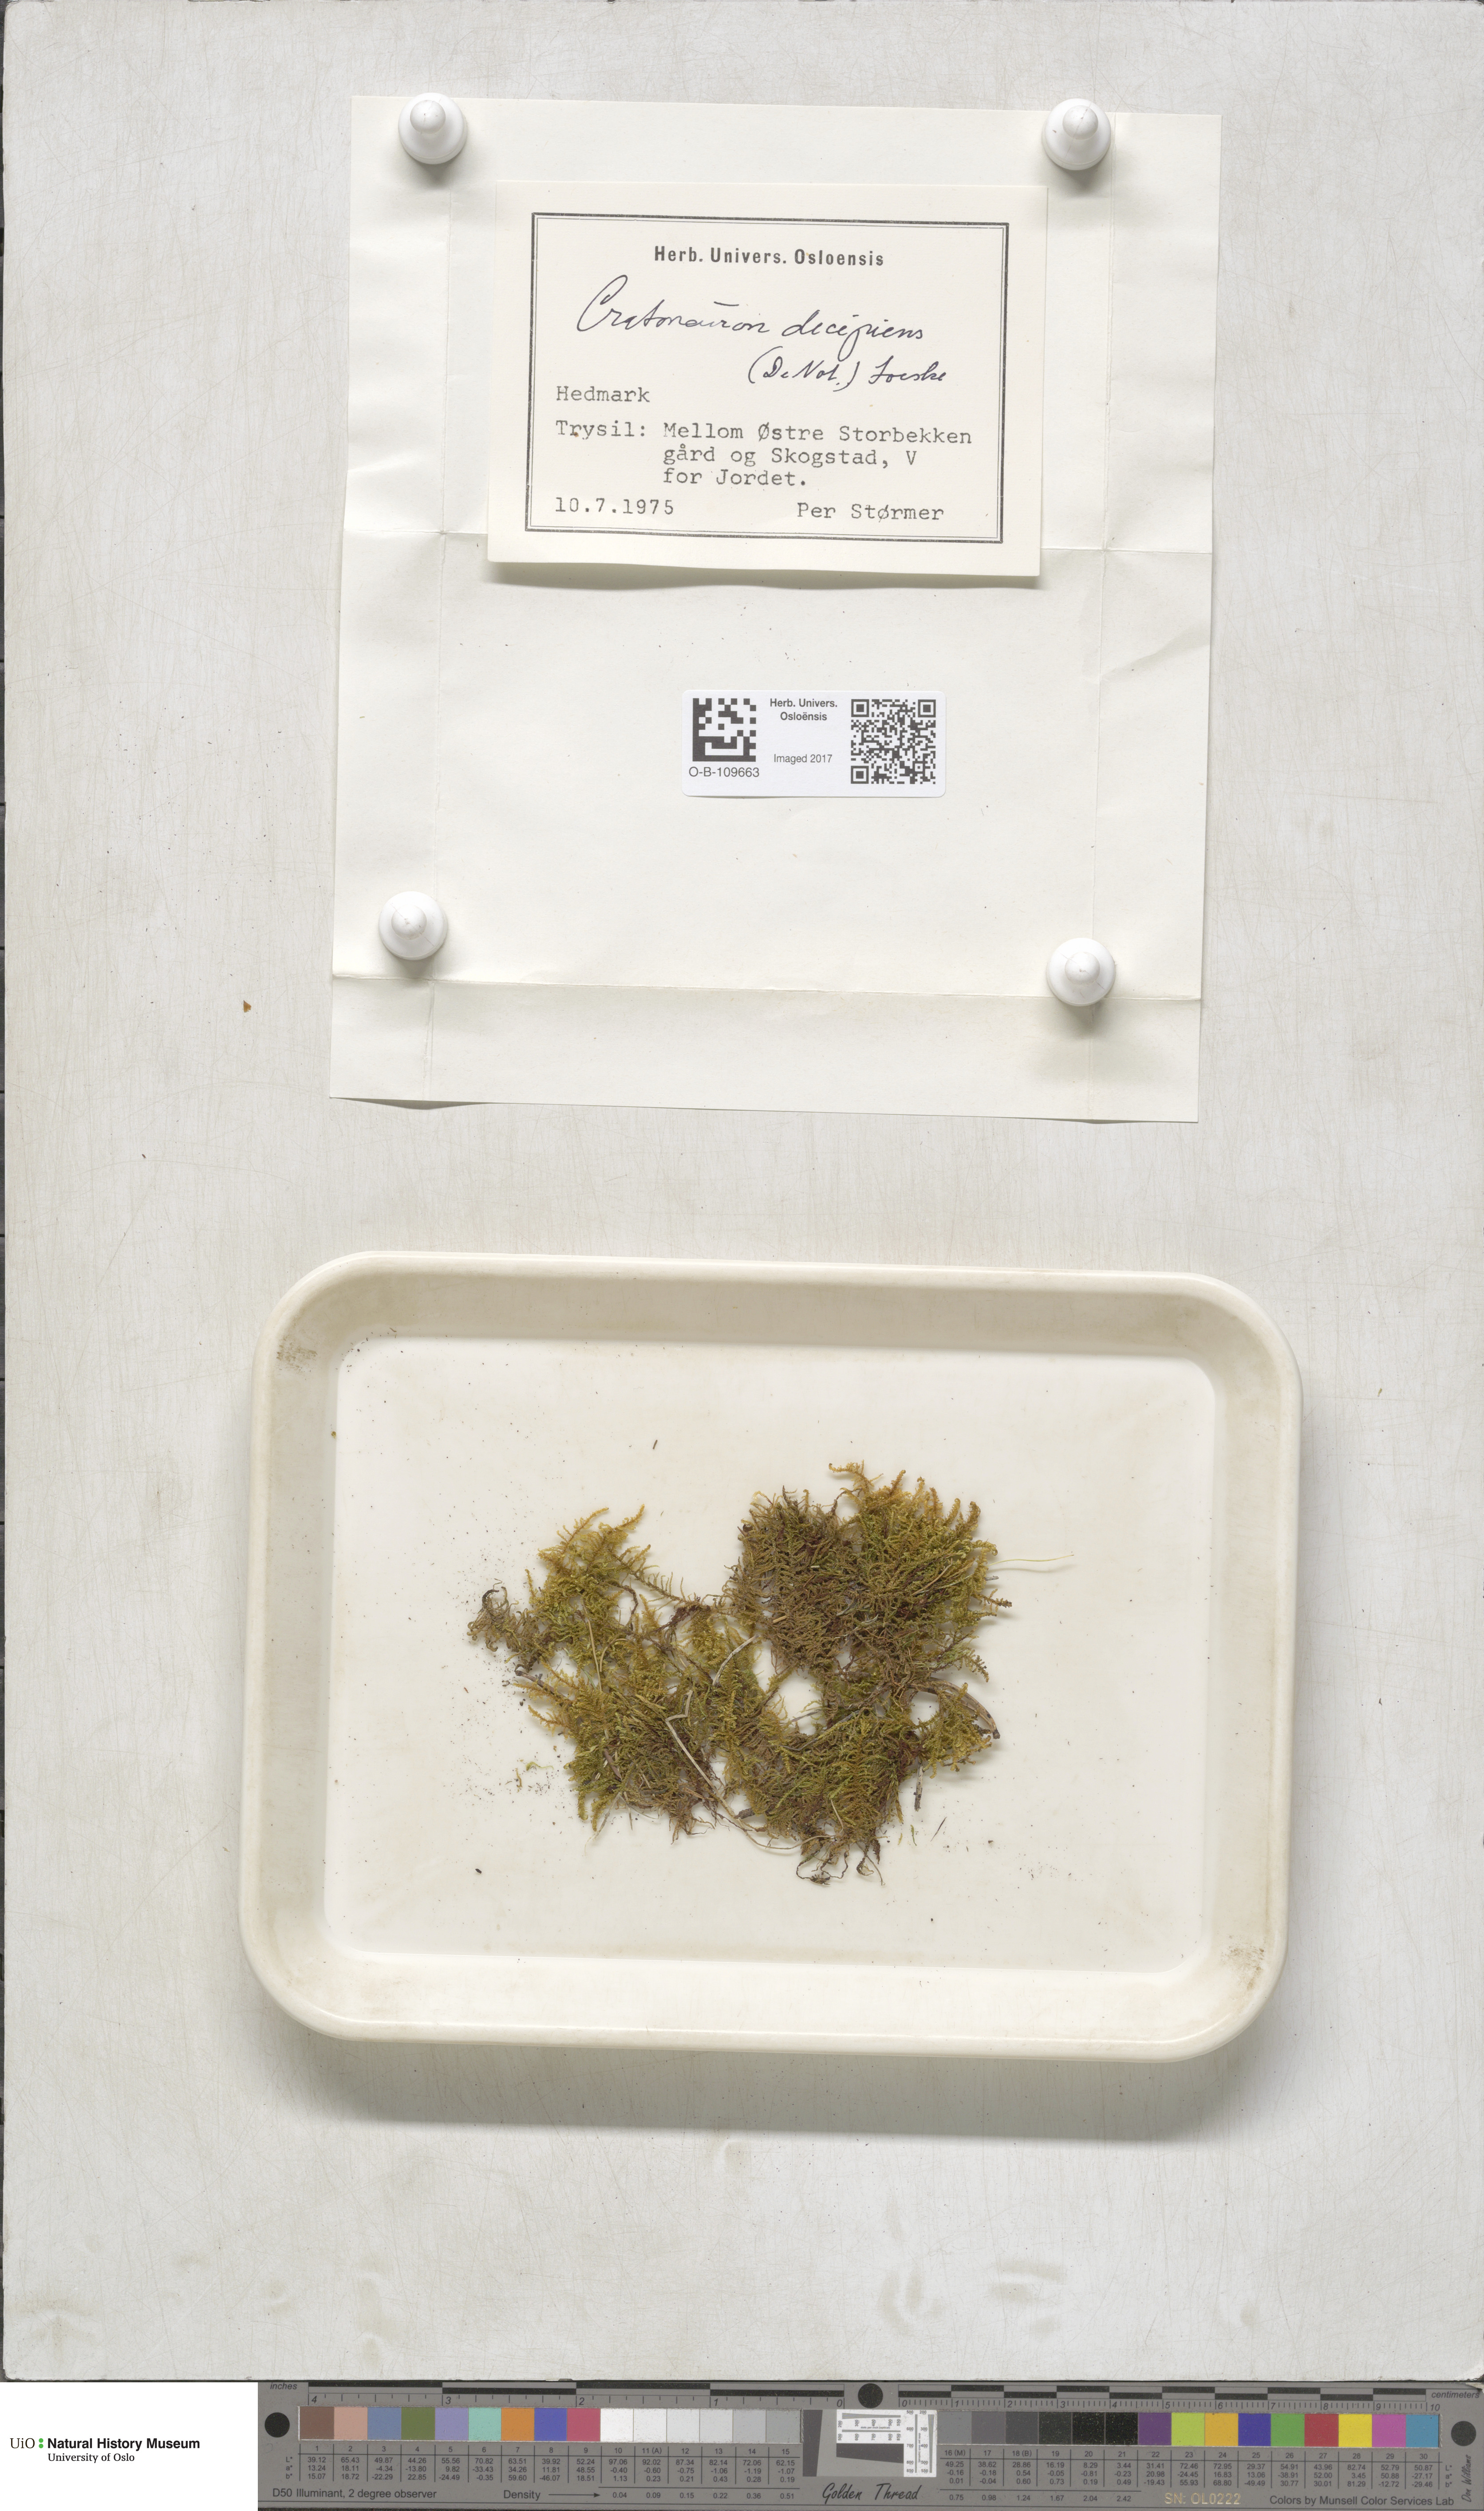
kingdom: Plantae
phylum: Bryophyta
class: Bryopsida
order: Hypnales
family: Amblystegiaceae
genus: Palustriella
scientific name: Palustriella decipiens
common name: Lesser curled hook-moss
